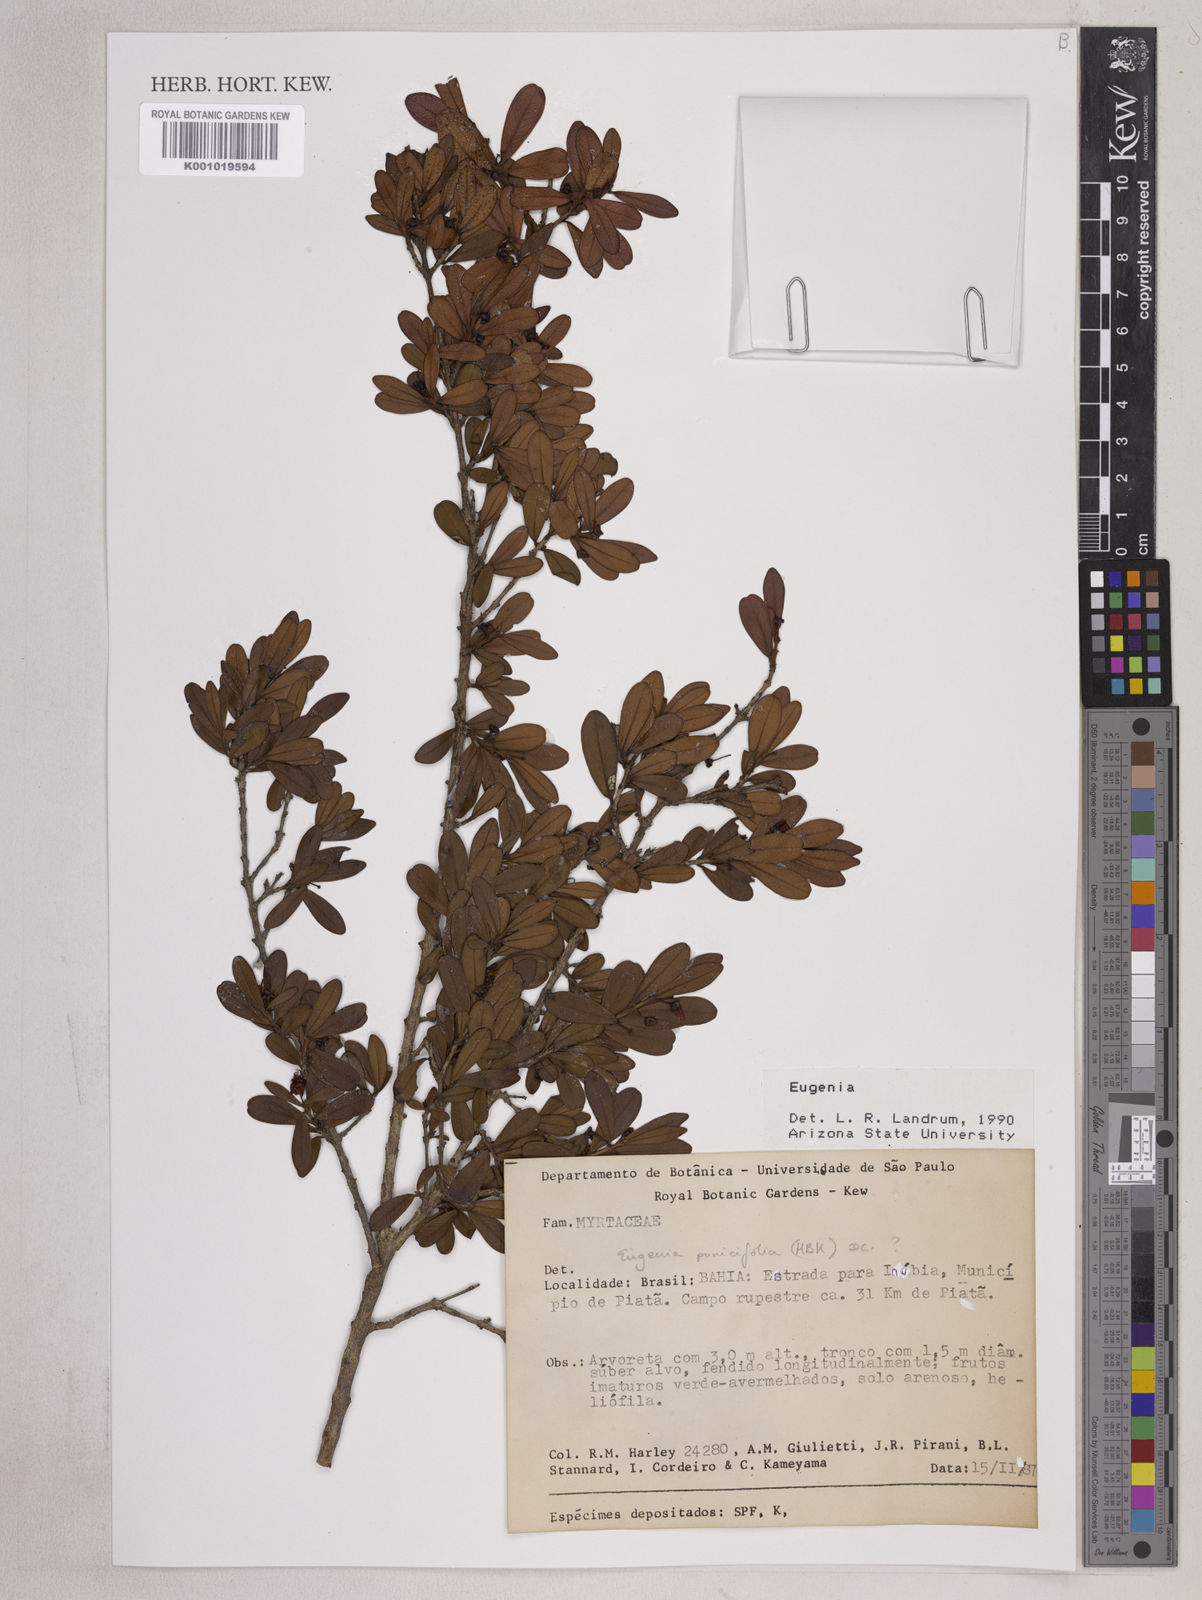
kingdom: Plantae
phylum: Tracheophyta
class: Magnoliopsida
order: Myrtales
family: Myrtaceae
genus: Eugenia
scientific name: Eugenia punicifolia
